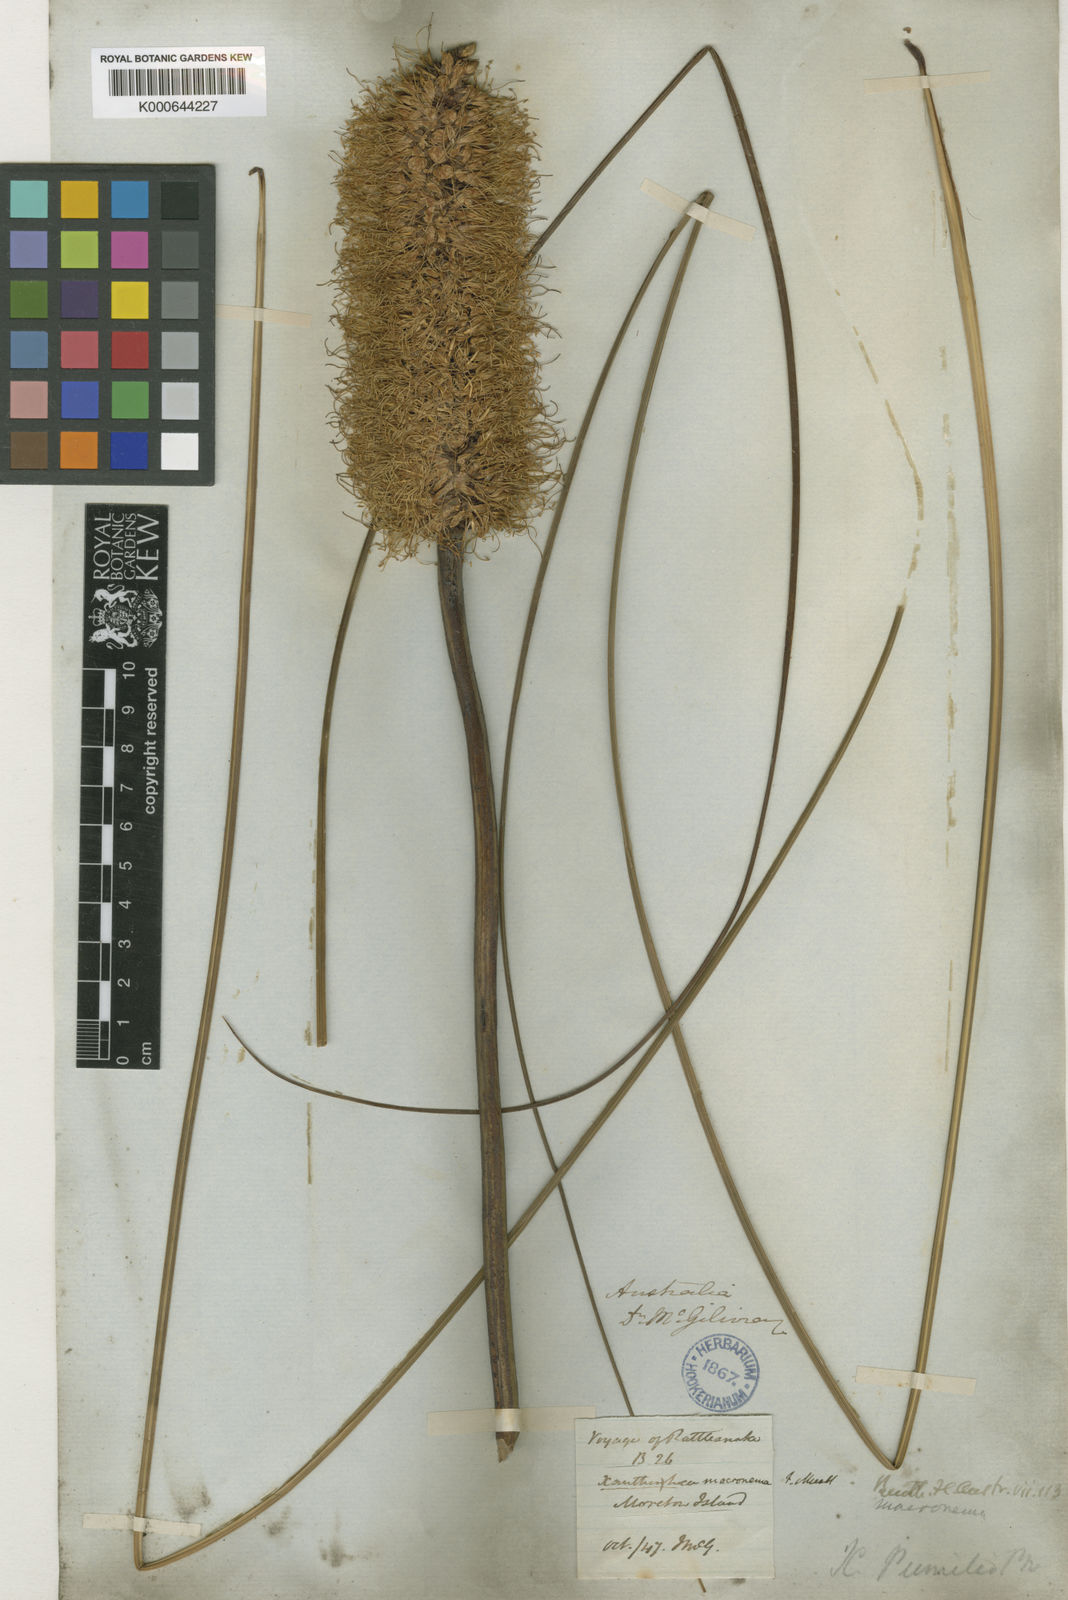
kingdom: Plantae
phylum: Tracheophyta
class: Liliopsida
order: Asparagales
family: Asphodelaceae
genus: Xanthorrhoea
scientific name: Xanthorrhoea macronema
